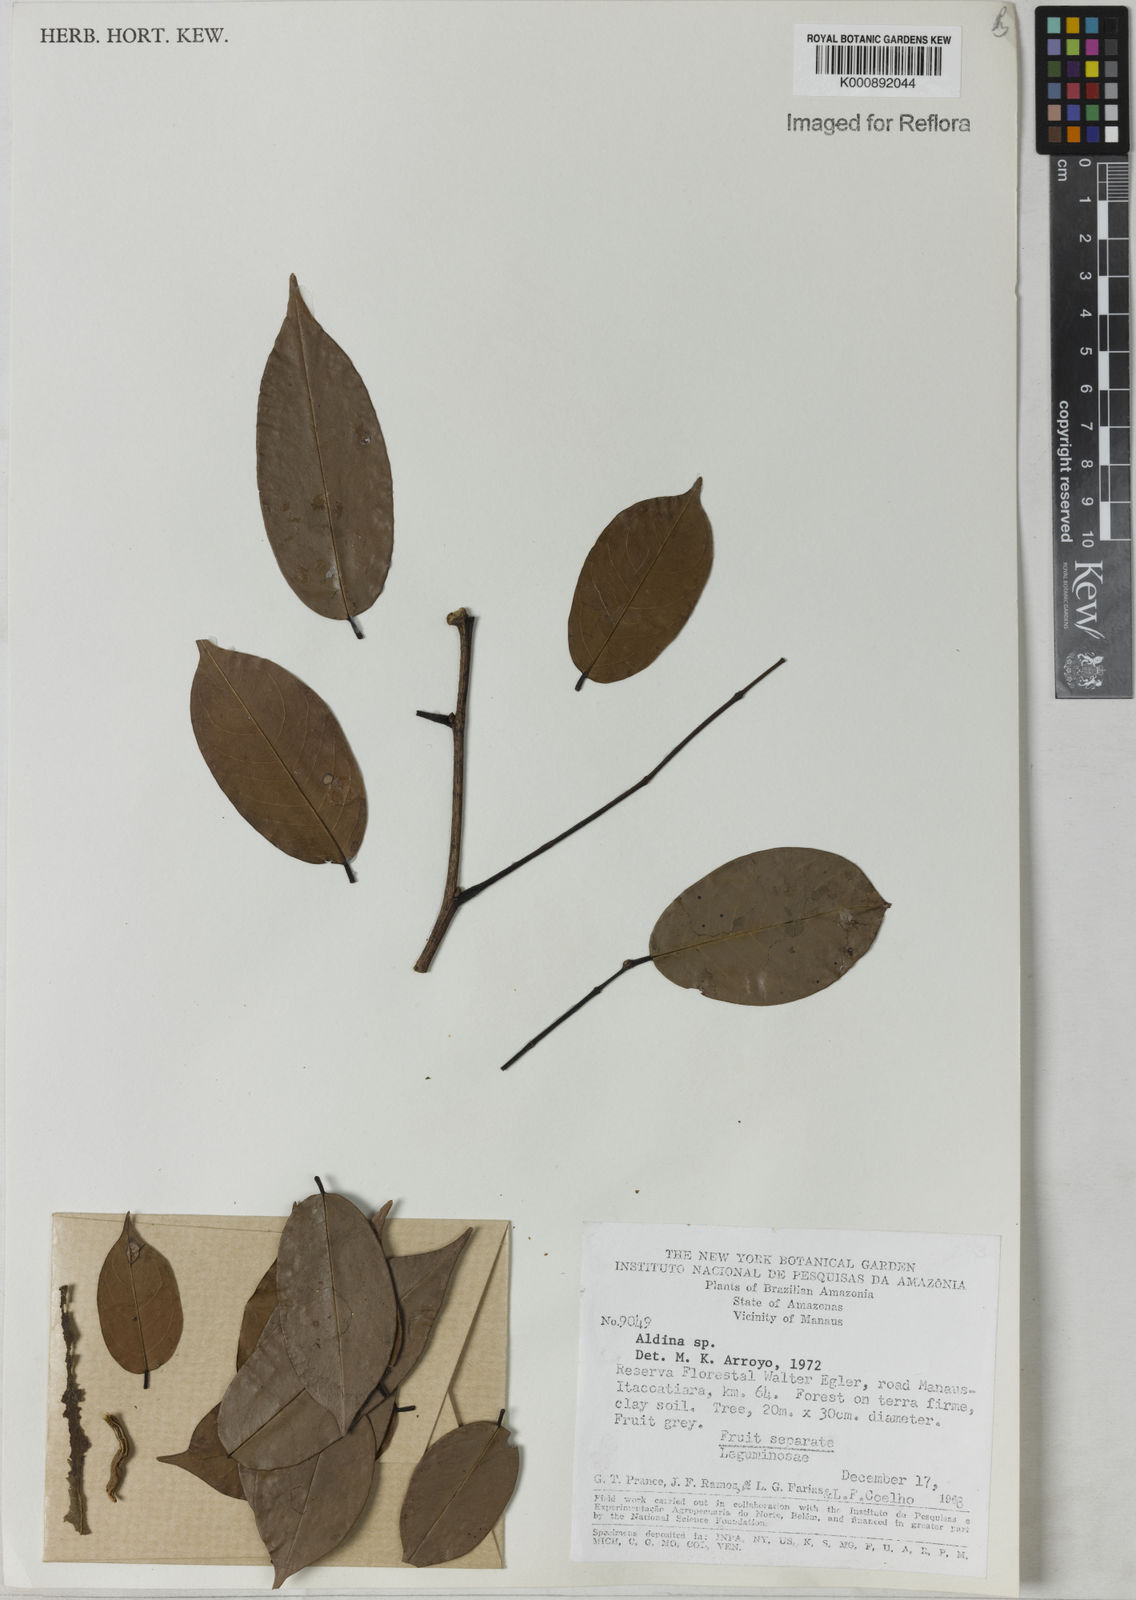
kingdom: Plantae
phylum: Tracheophyta
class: Magnoliopsida
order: Fabales
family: Fabaceae
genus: Aldina
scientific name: Aldina
